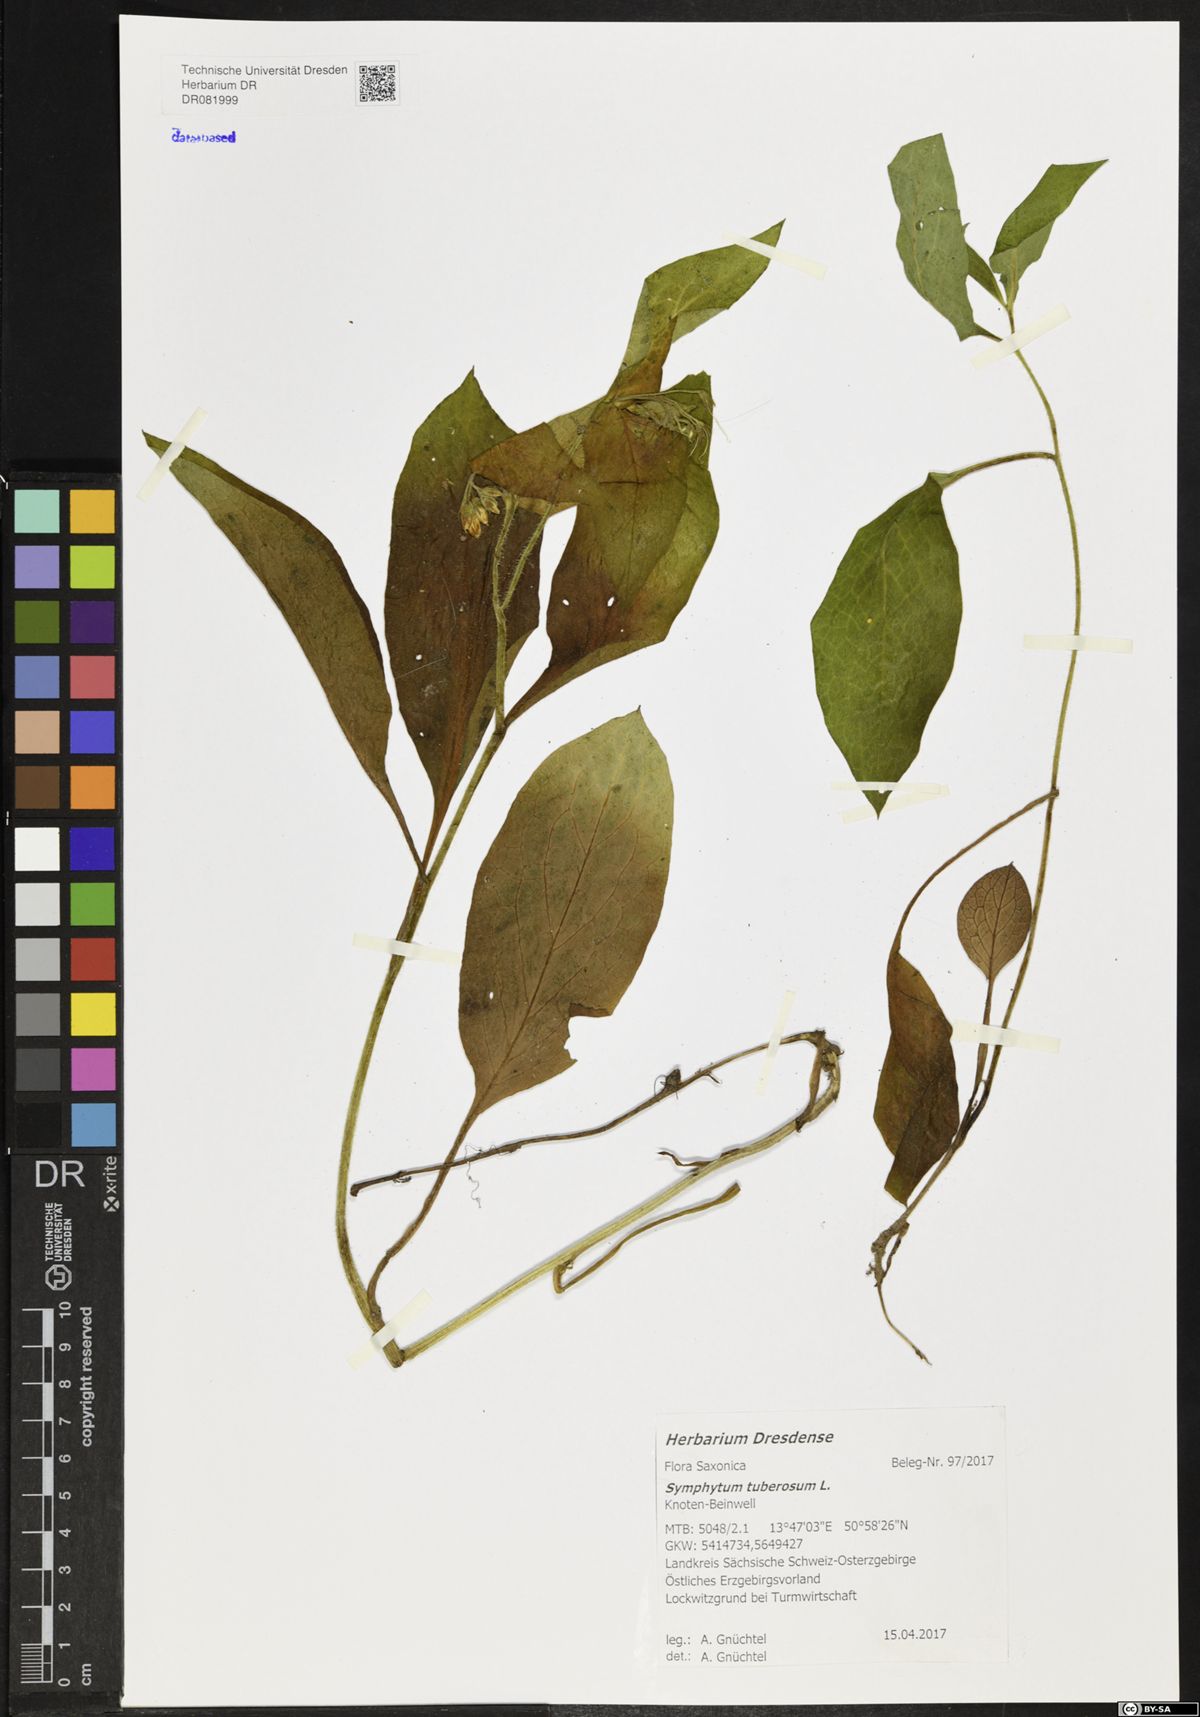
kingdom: Plantae
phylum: Tracheophyta
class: Magnoliopsida
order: Boraginales
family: Boraginaceae
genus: Symphytum
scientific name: Symphytum tuberosum
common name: Tuberous comfrey
